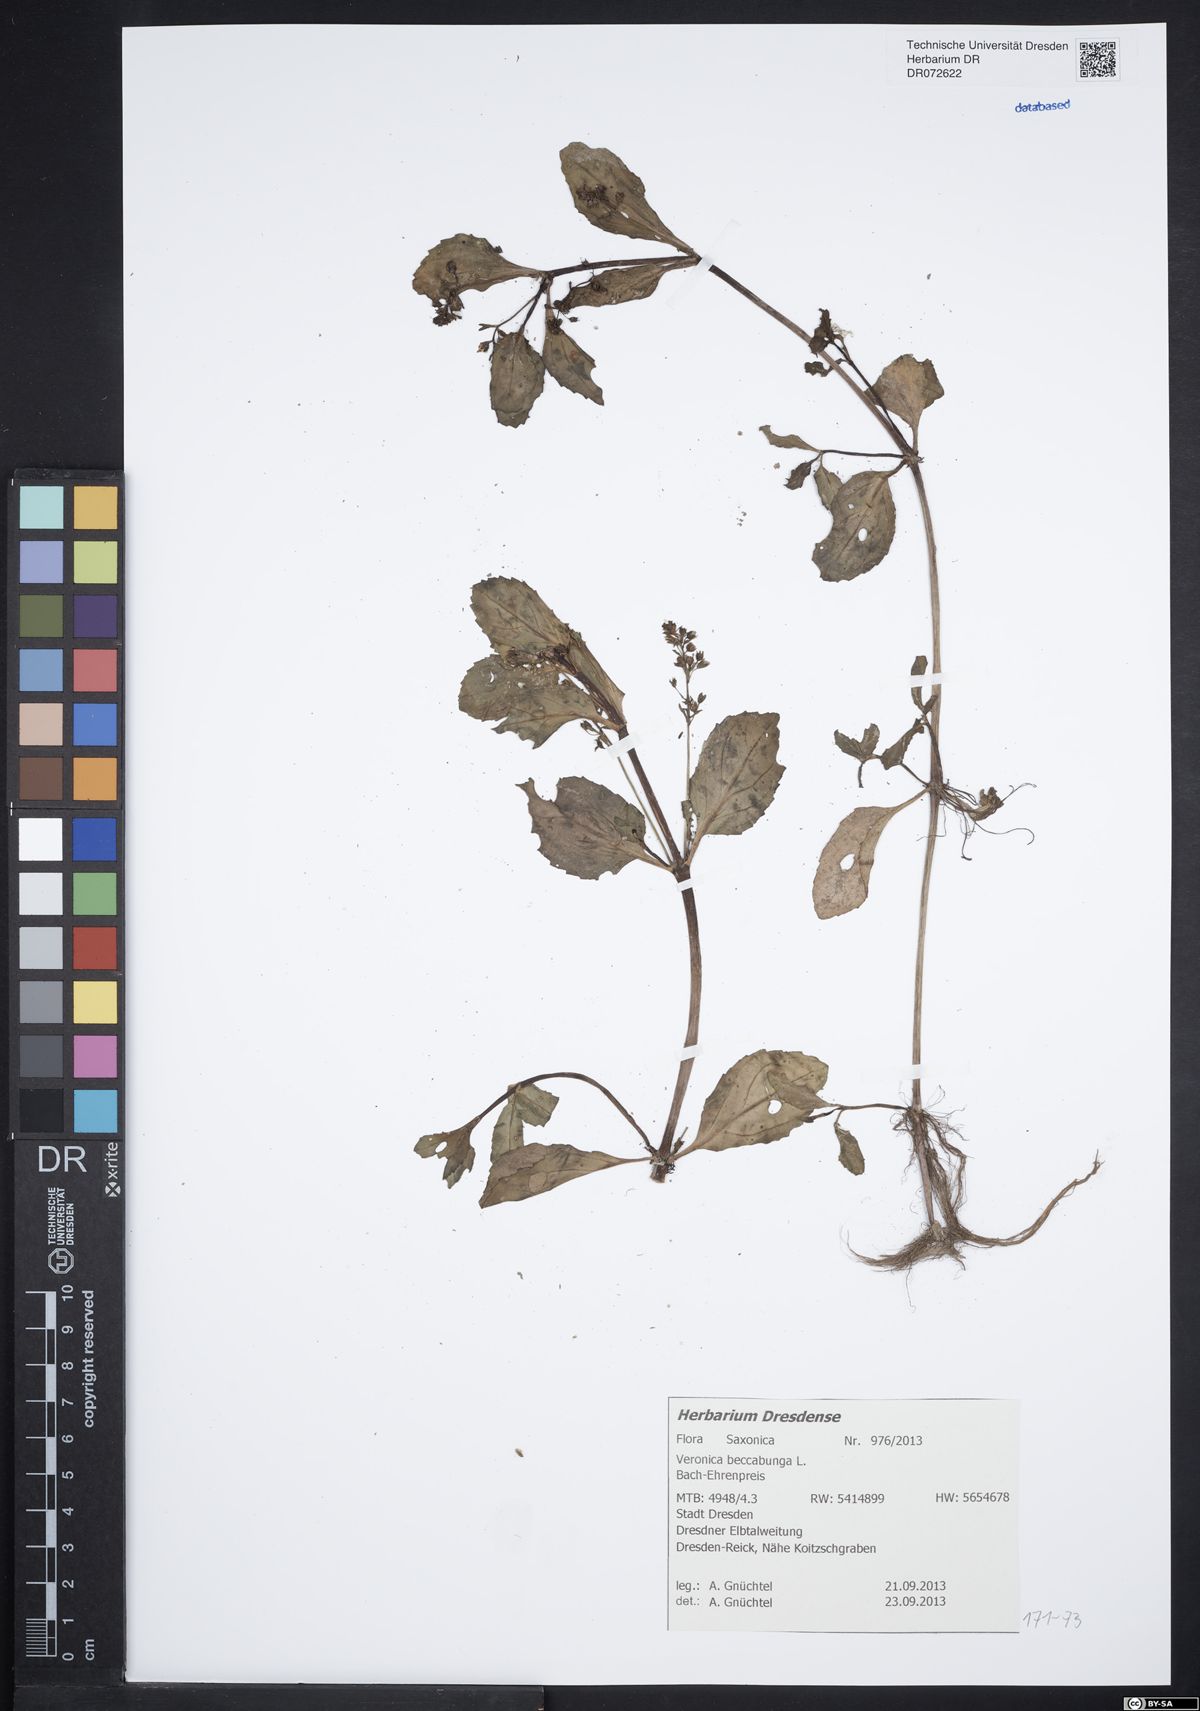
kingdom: Plantae
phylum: Tracheophyta
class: Magnoliopsida
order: Lamiales
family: Plantaginaceae
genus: Veronica
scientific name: Veronica beccabunga
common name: Brooklime
